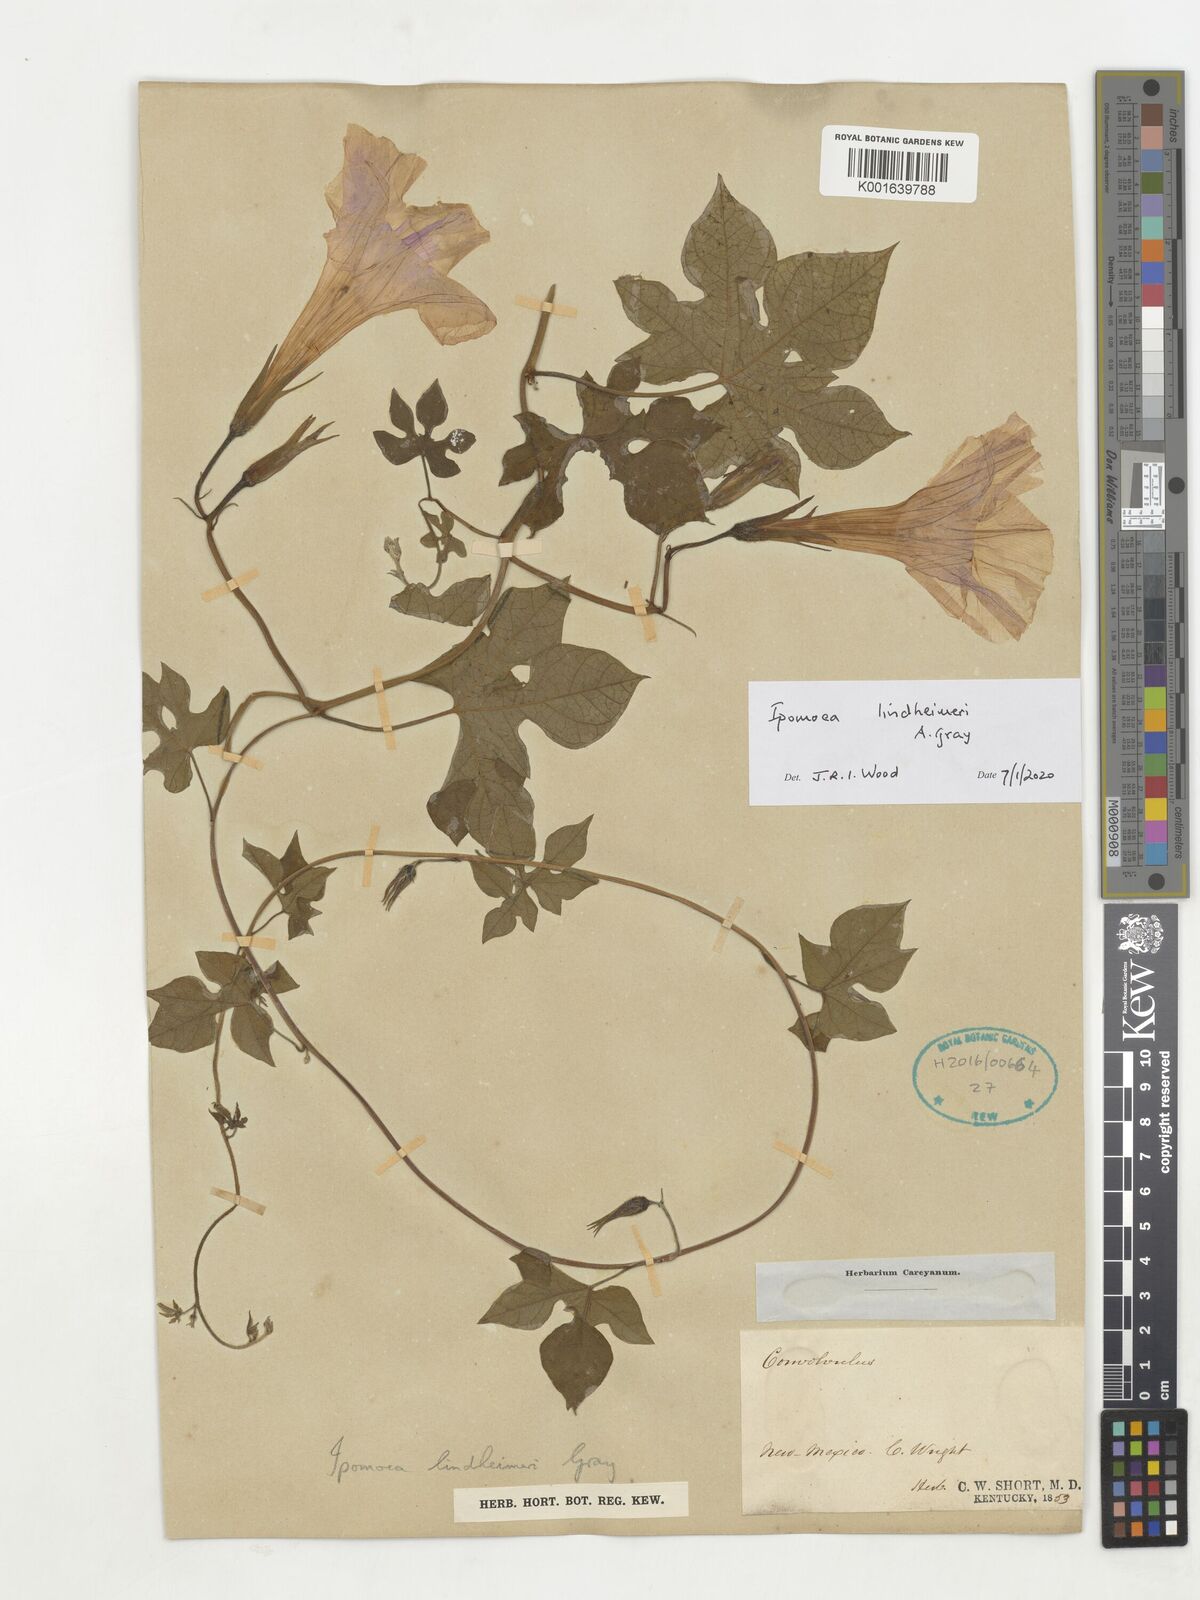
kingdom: Plantae
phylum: Tracheophyta
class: Magnoliopsida
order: Solanales
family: Convolvulaceae
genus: Ipomoea
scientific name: Ipomoea lindheimeri
